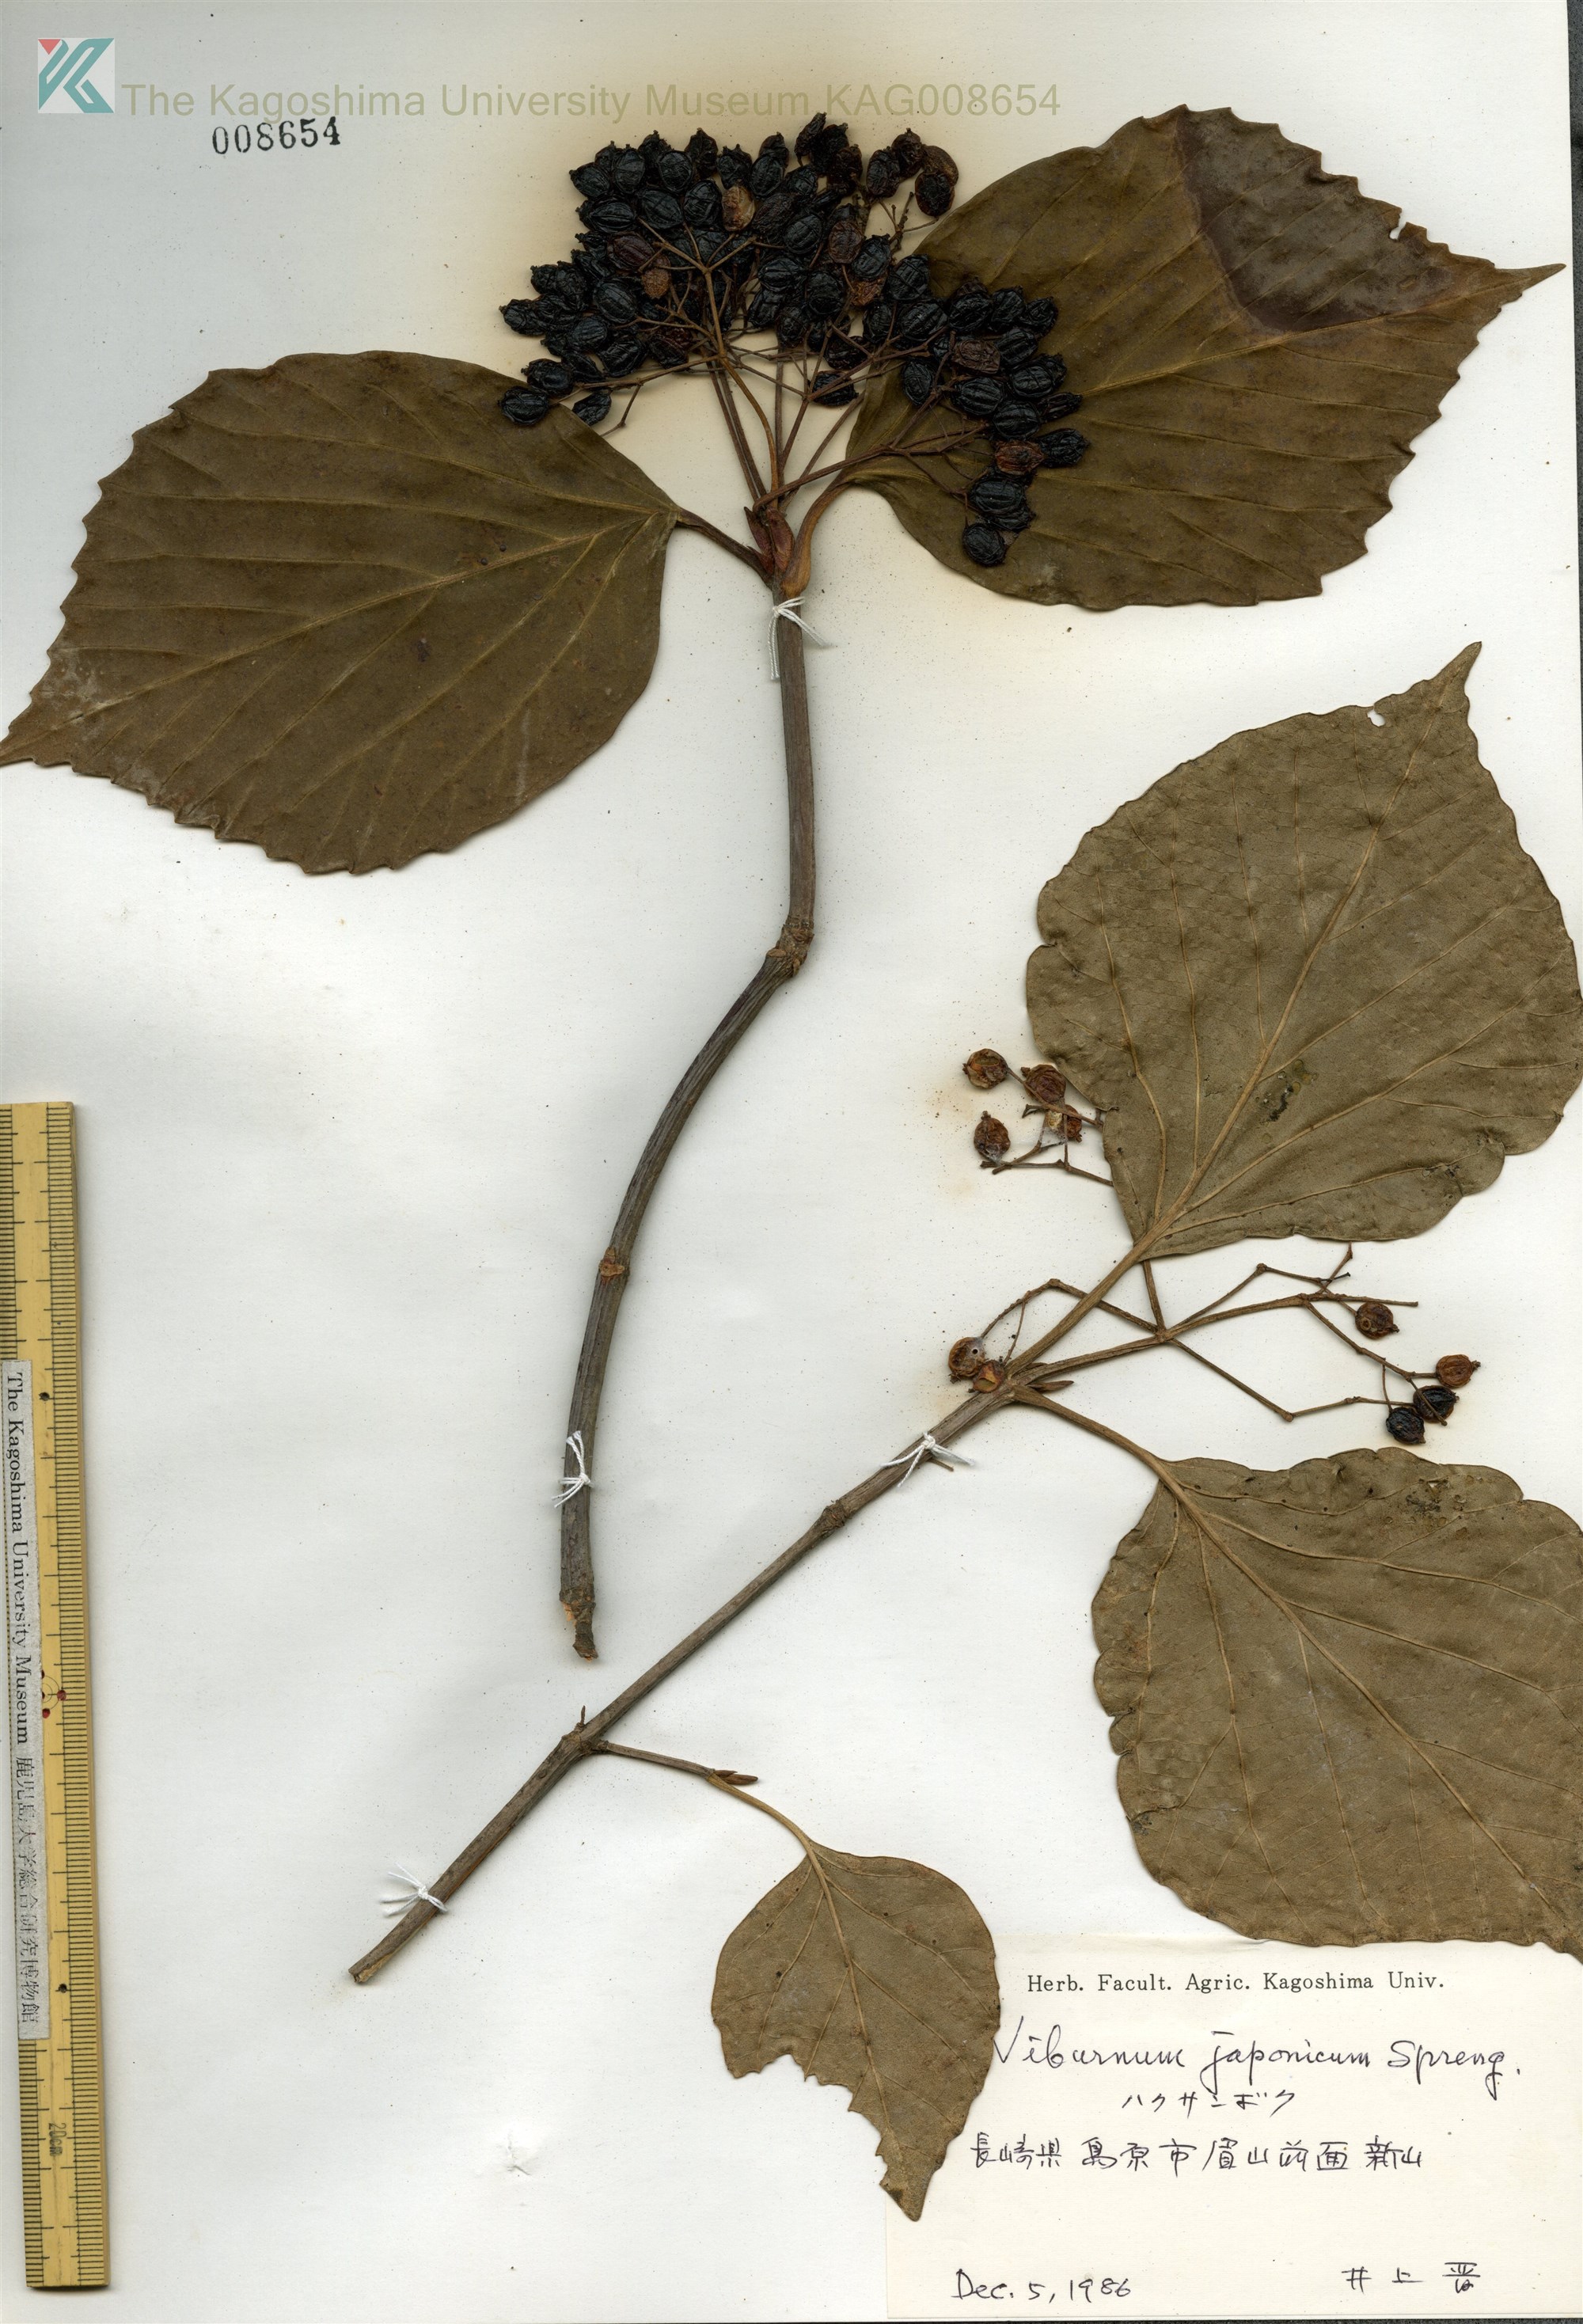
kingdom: Plantae
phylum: Tracheophyta
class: Magnoliopsida
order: Dipsacales
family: Viburnaceae
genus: Viburnum
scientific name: Viburnum japonicum
